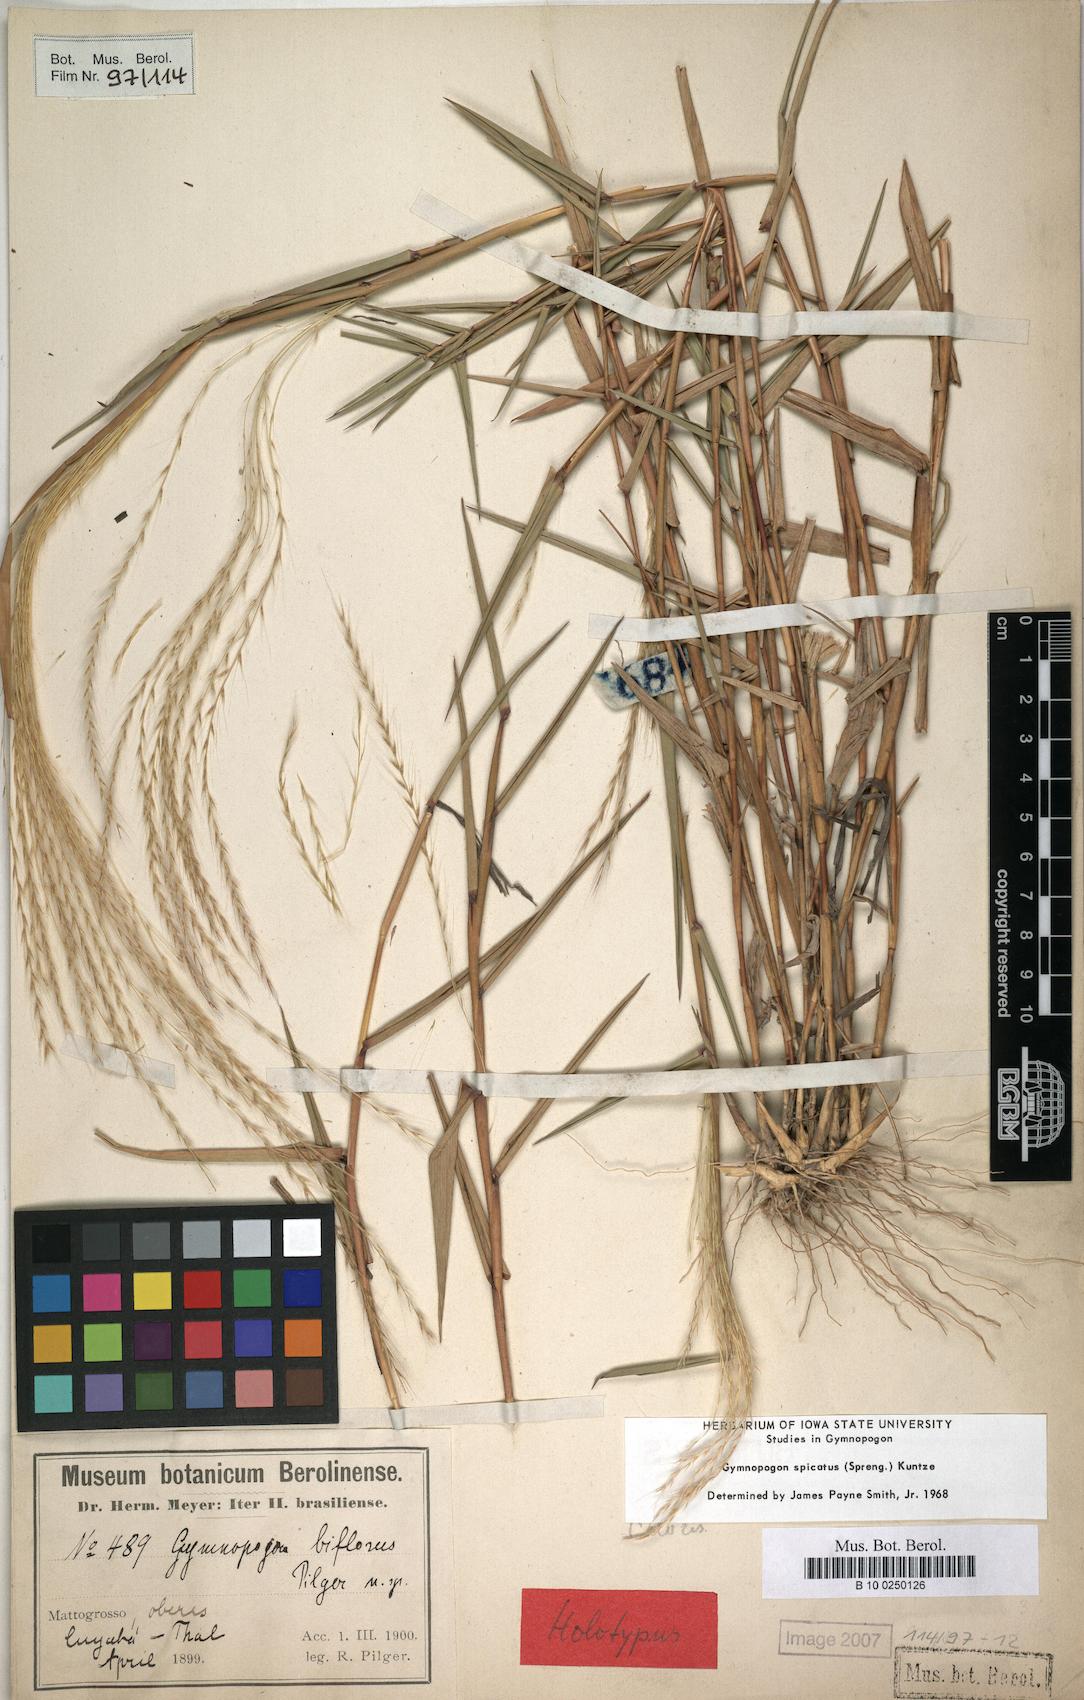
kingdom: Plantae
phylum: Tracheophyta
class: Liliopsida
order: Poales
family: Poaceae
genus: Gymnopogon
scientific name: Gymnopogon spicatus
